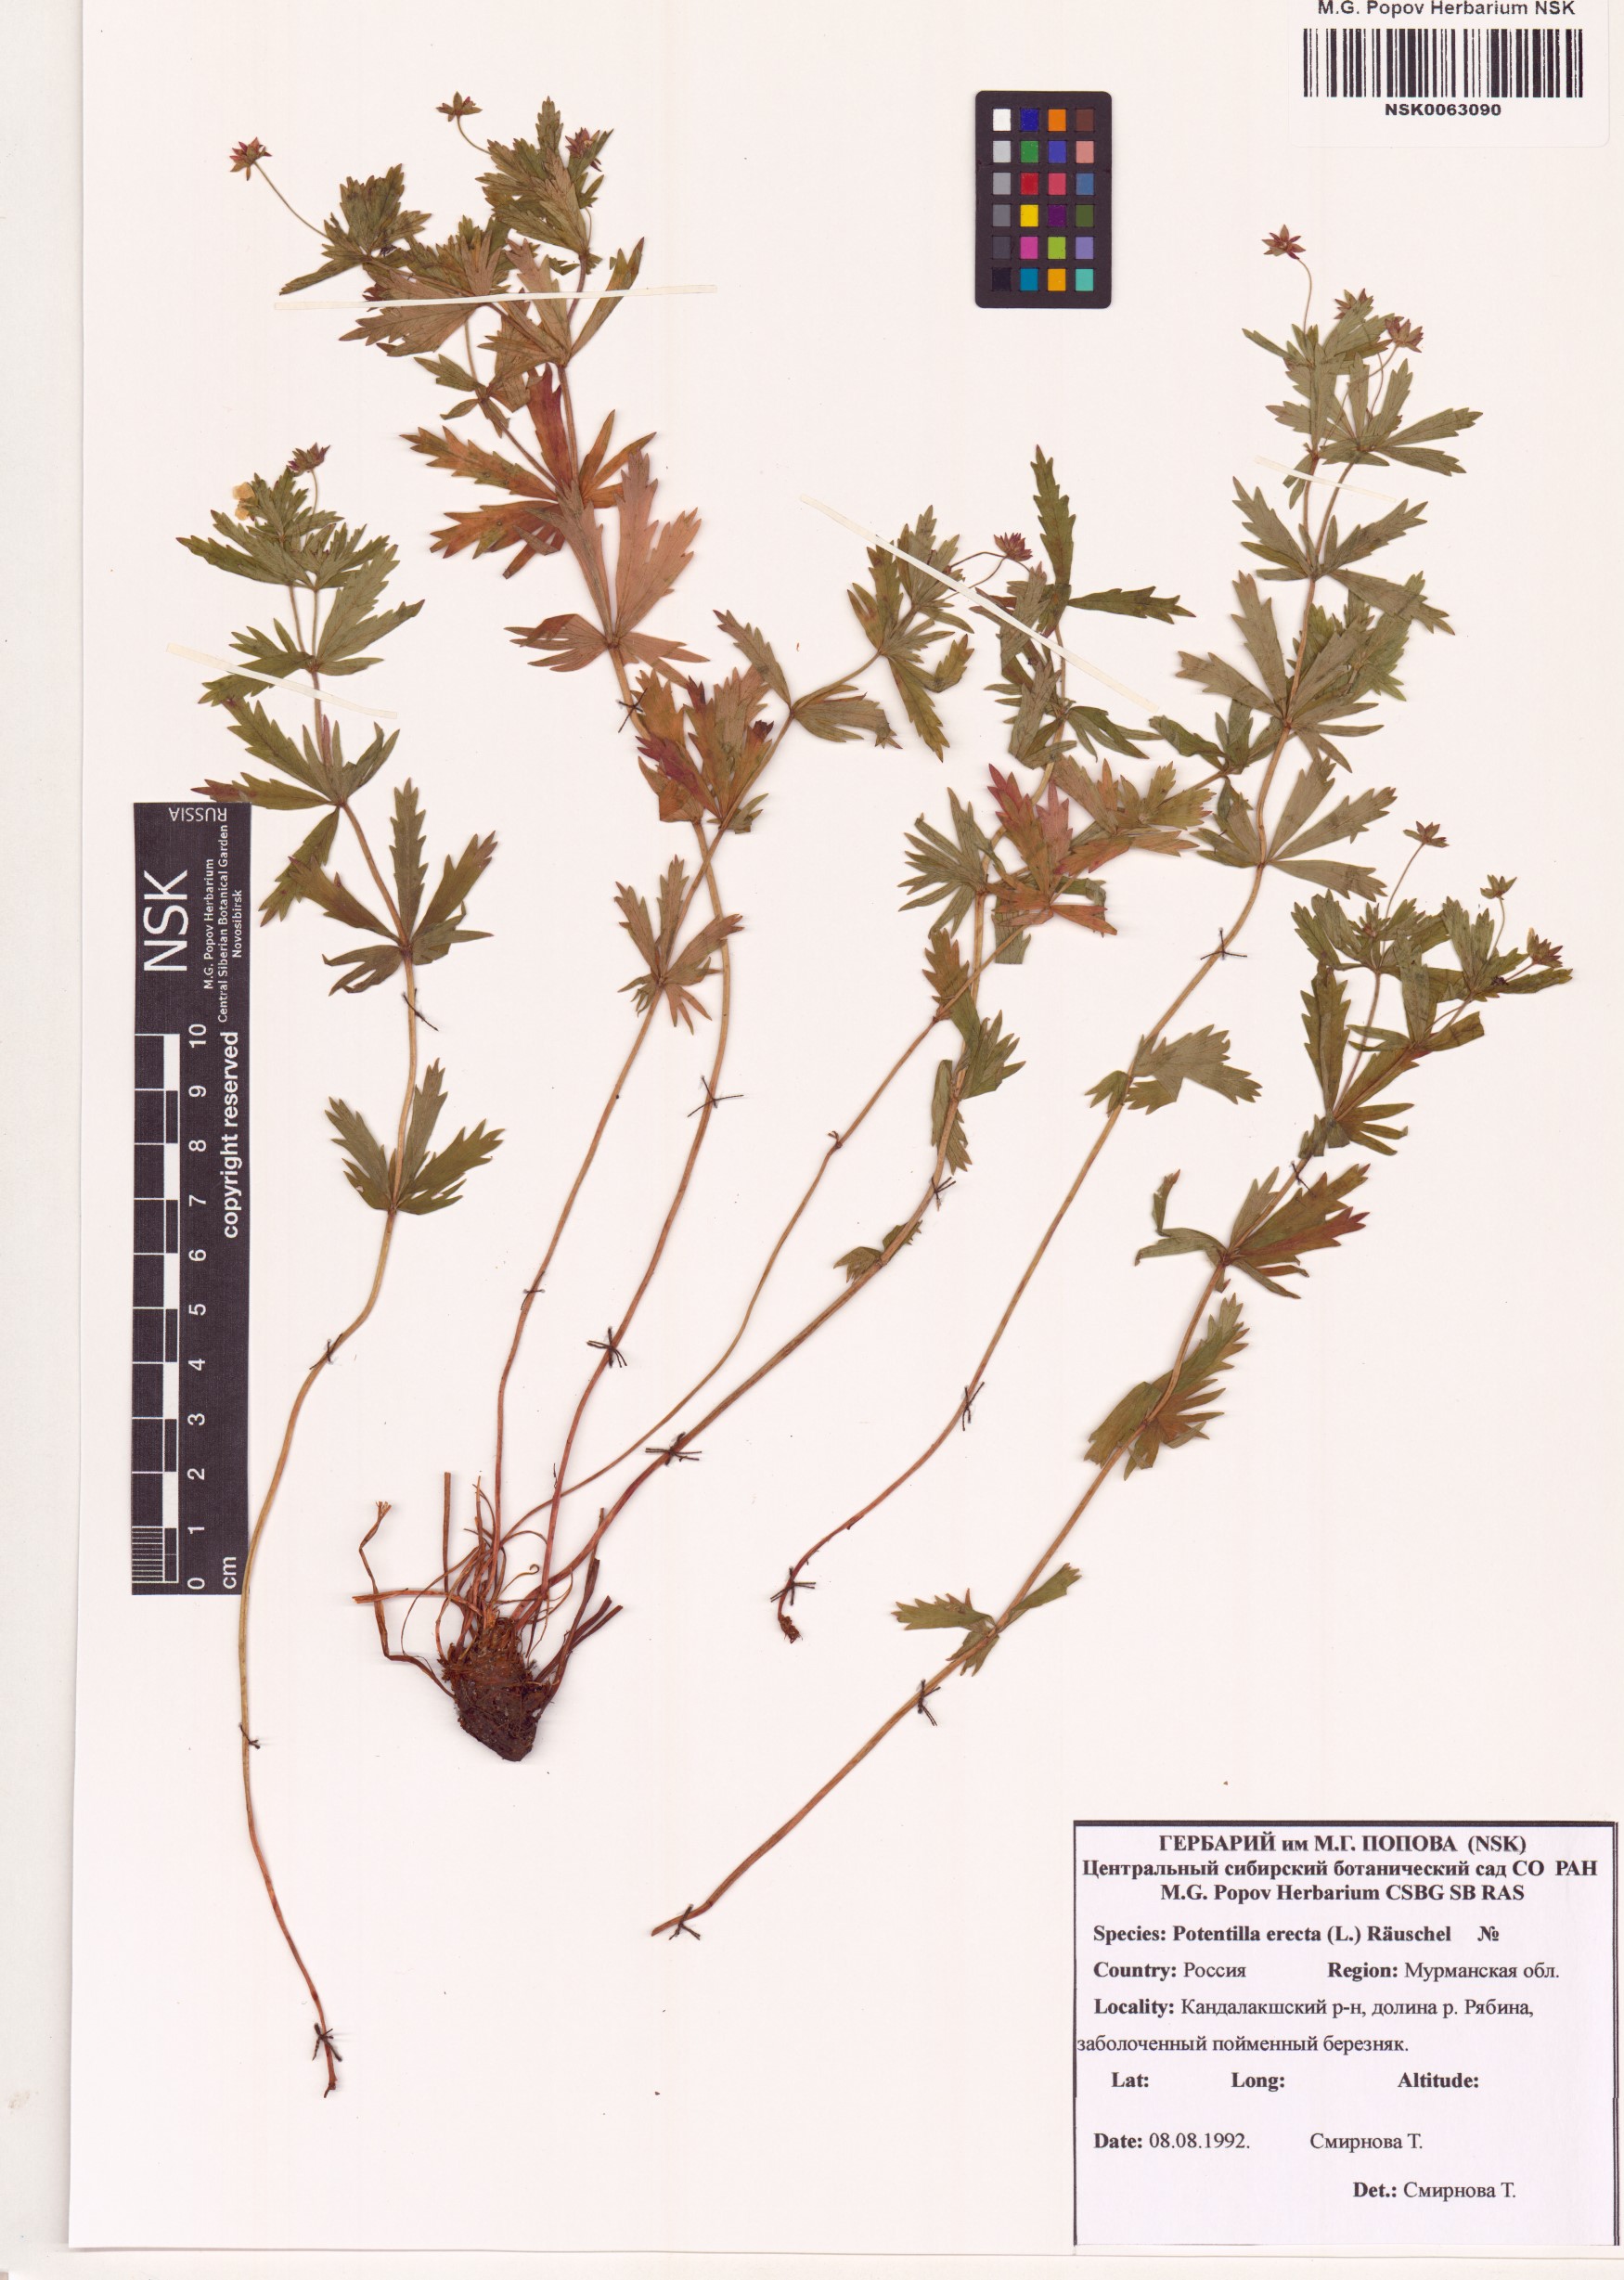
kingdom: Plantae
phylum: Tracheophyta
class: Magnoliopsida
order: Rosales
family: Rosaceae
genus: Potentilla
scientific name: Potentilla erecta
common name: Tormentil
